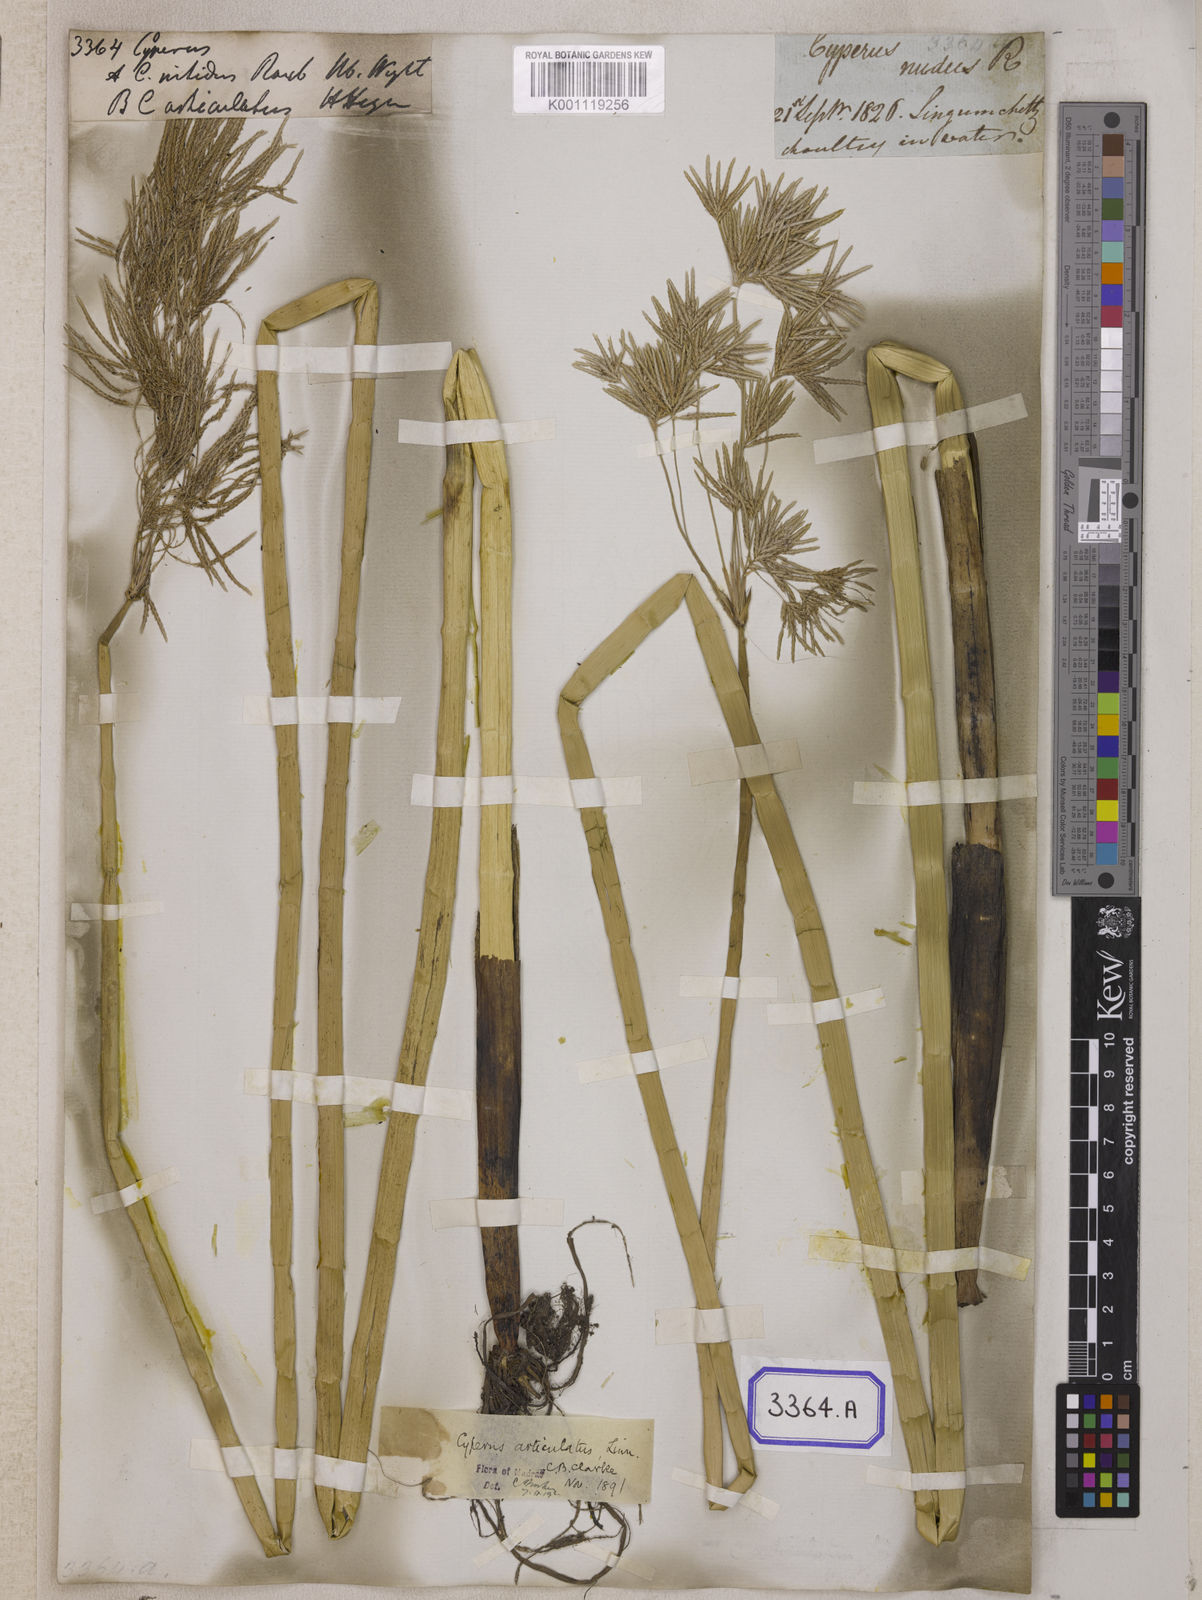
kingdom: Plantae
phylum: Tracheophyta
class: Liliopsida
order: Poales
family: Cyperaceae
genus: Cyperus
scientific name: Cyperus
